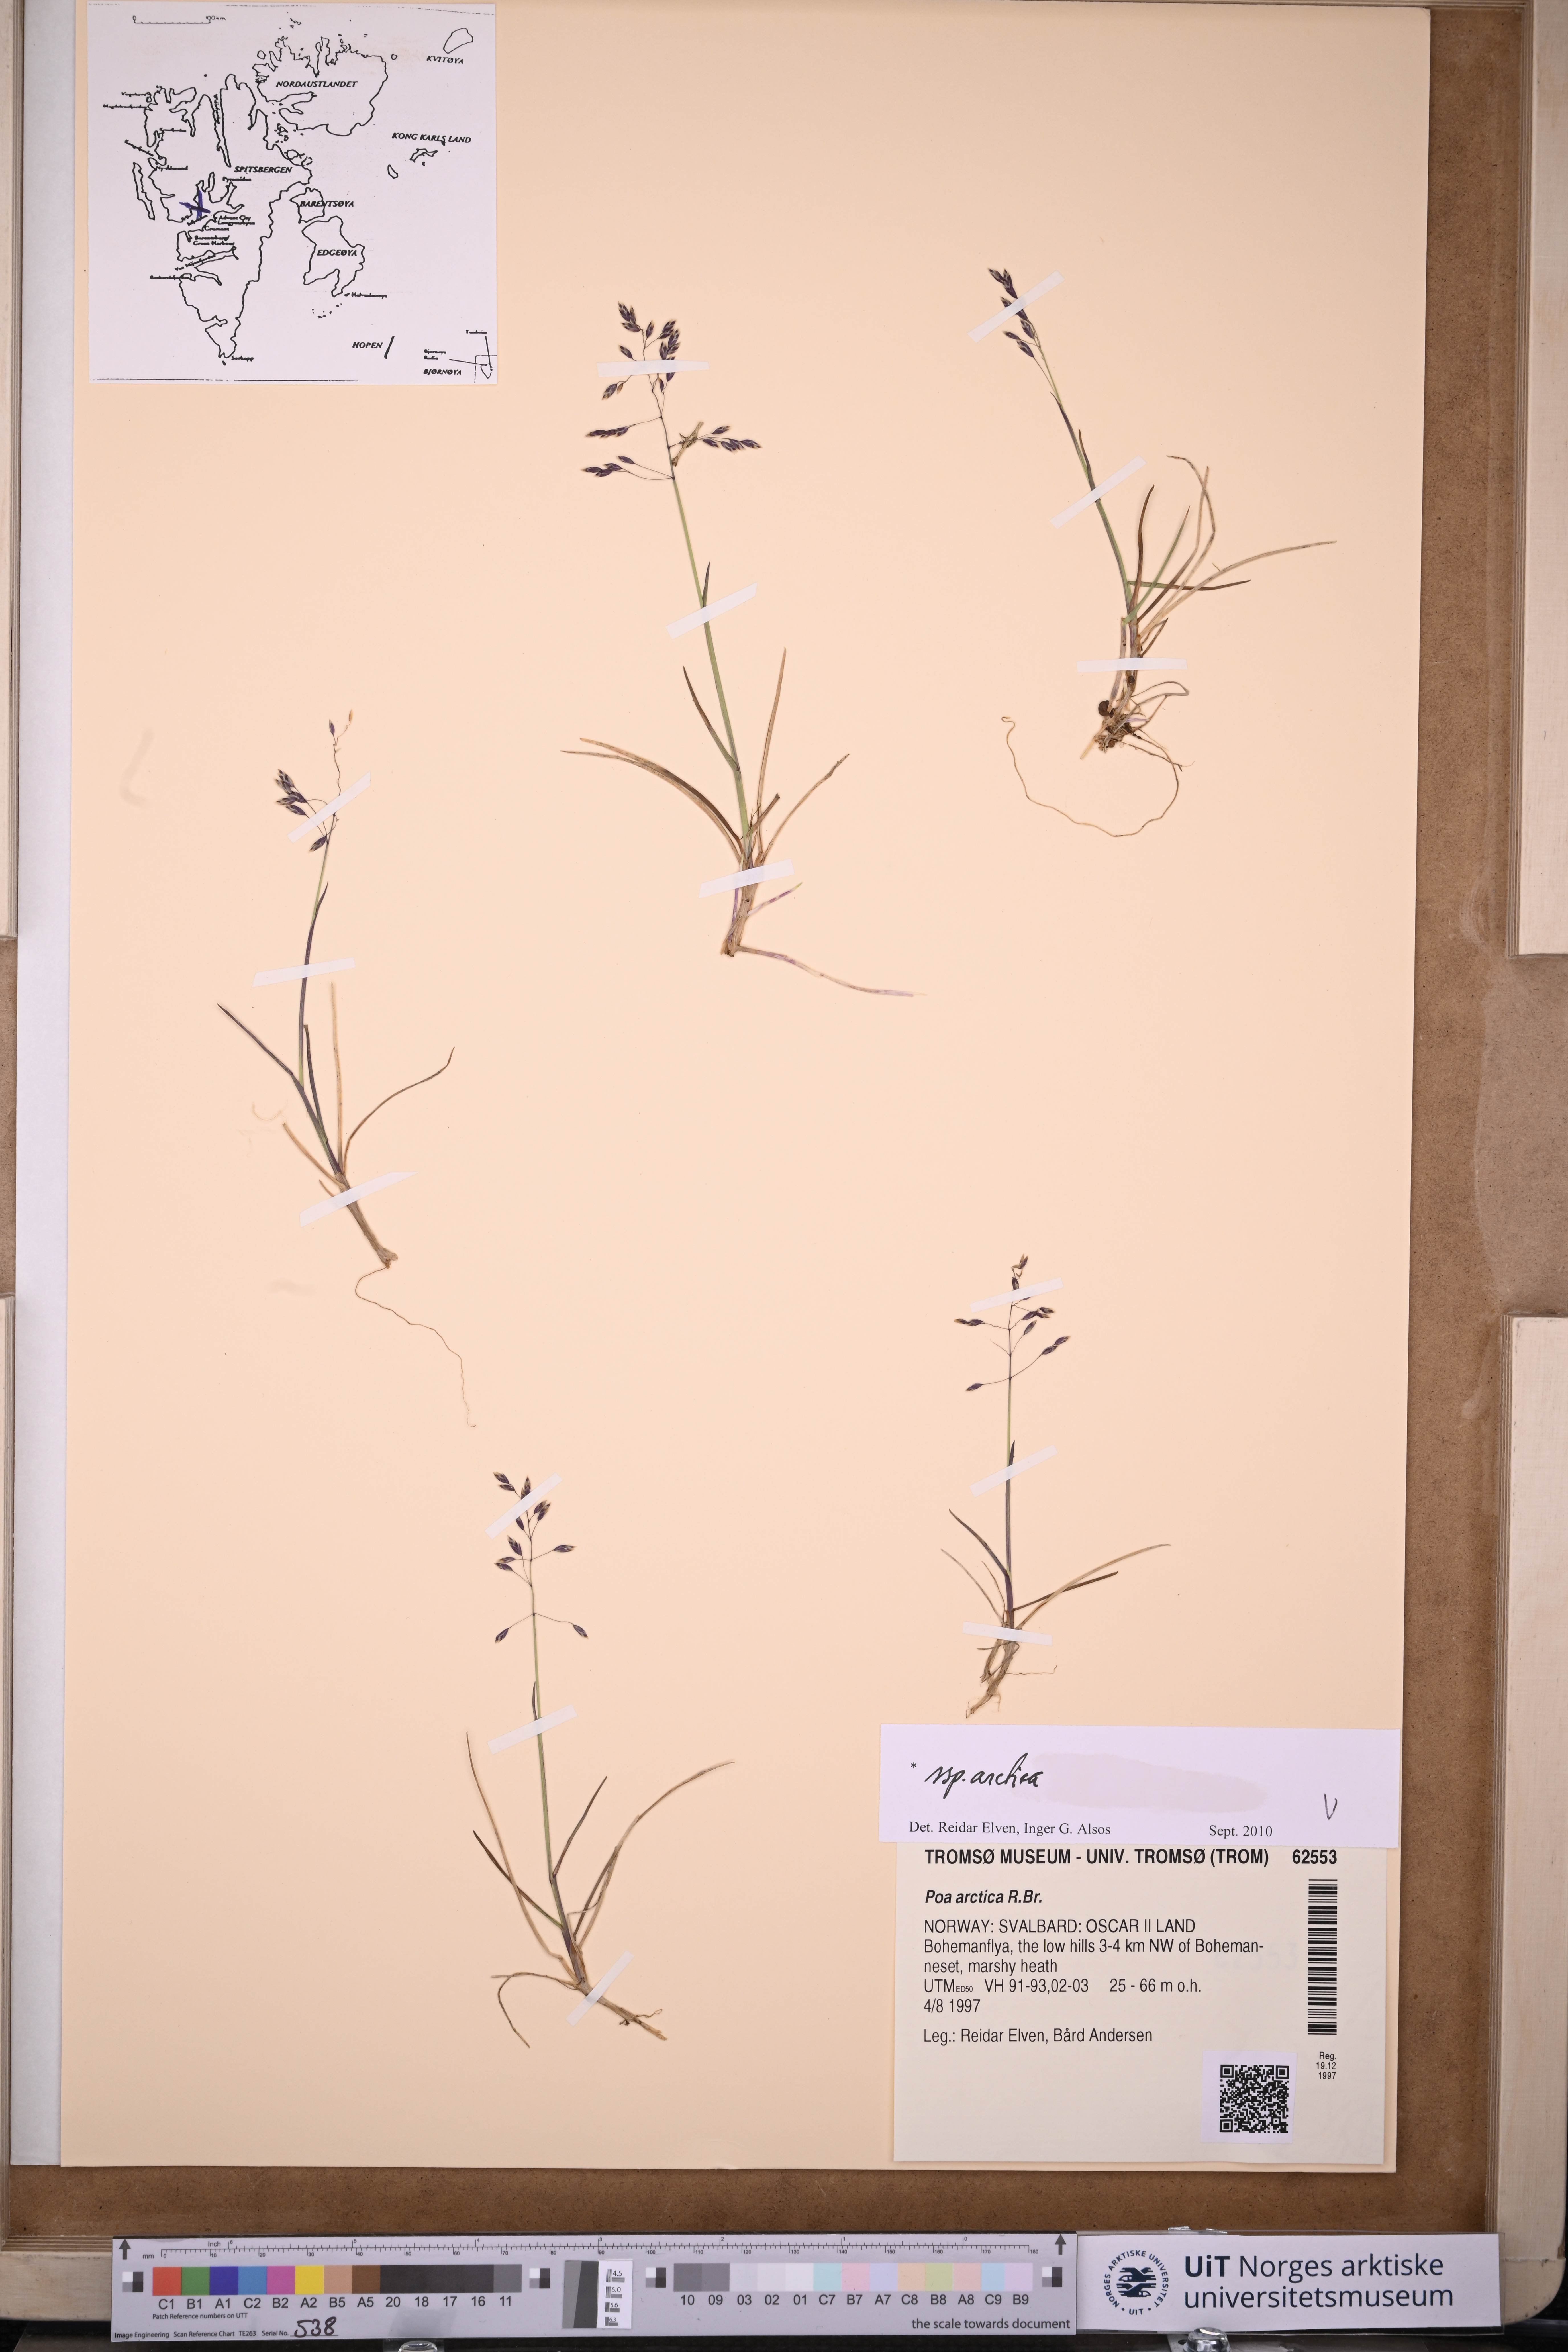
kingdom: Plantae
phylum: Tracheophyta
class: Liliopsida
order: Poales
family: Poaceae
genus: Poa
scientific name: Poa arctica
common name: Arctic bluegrass
